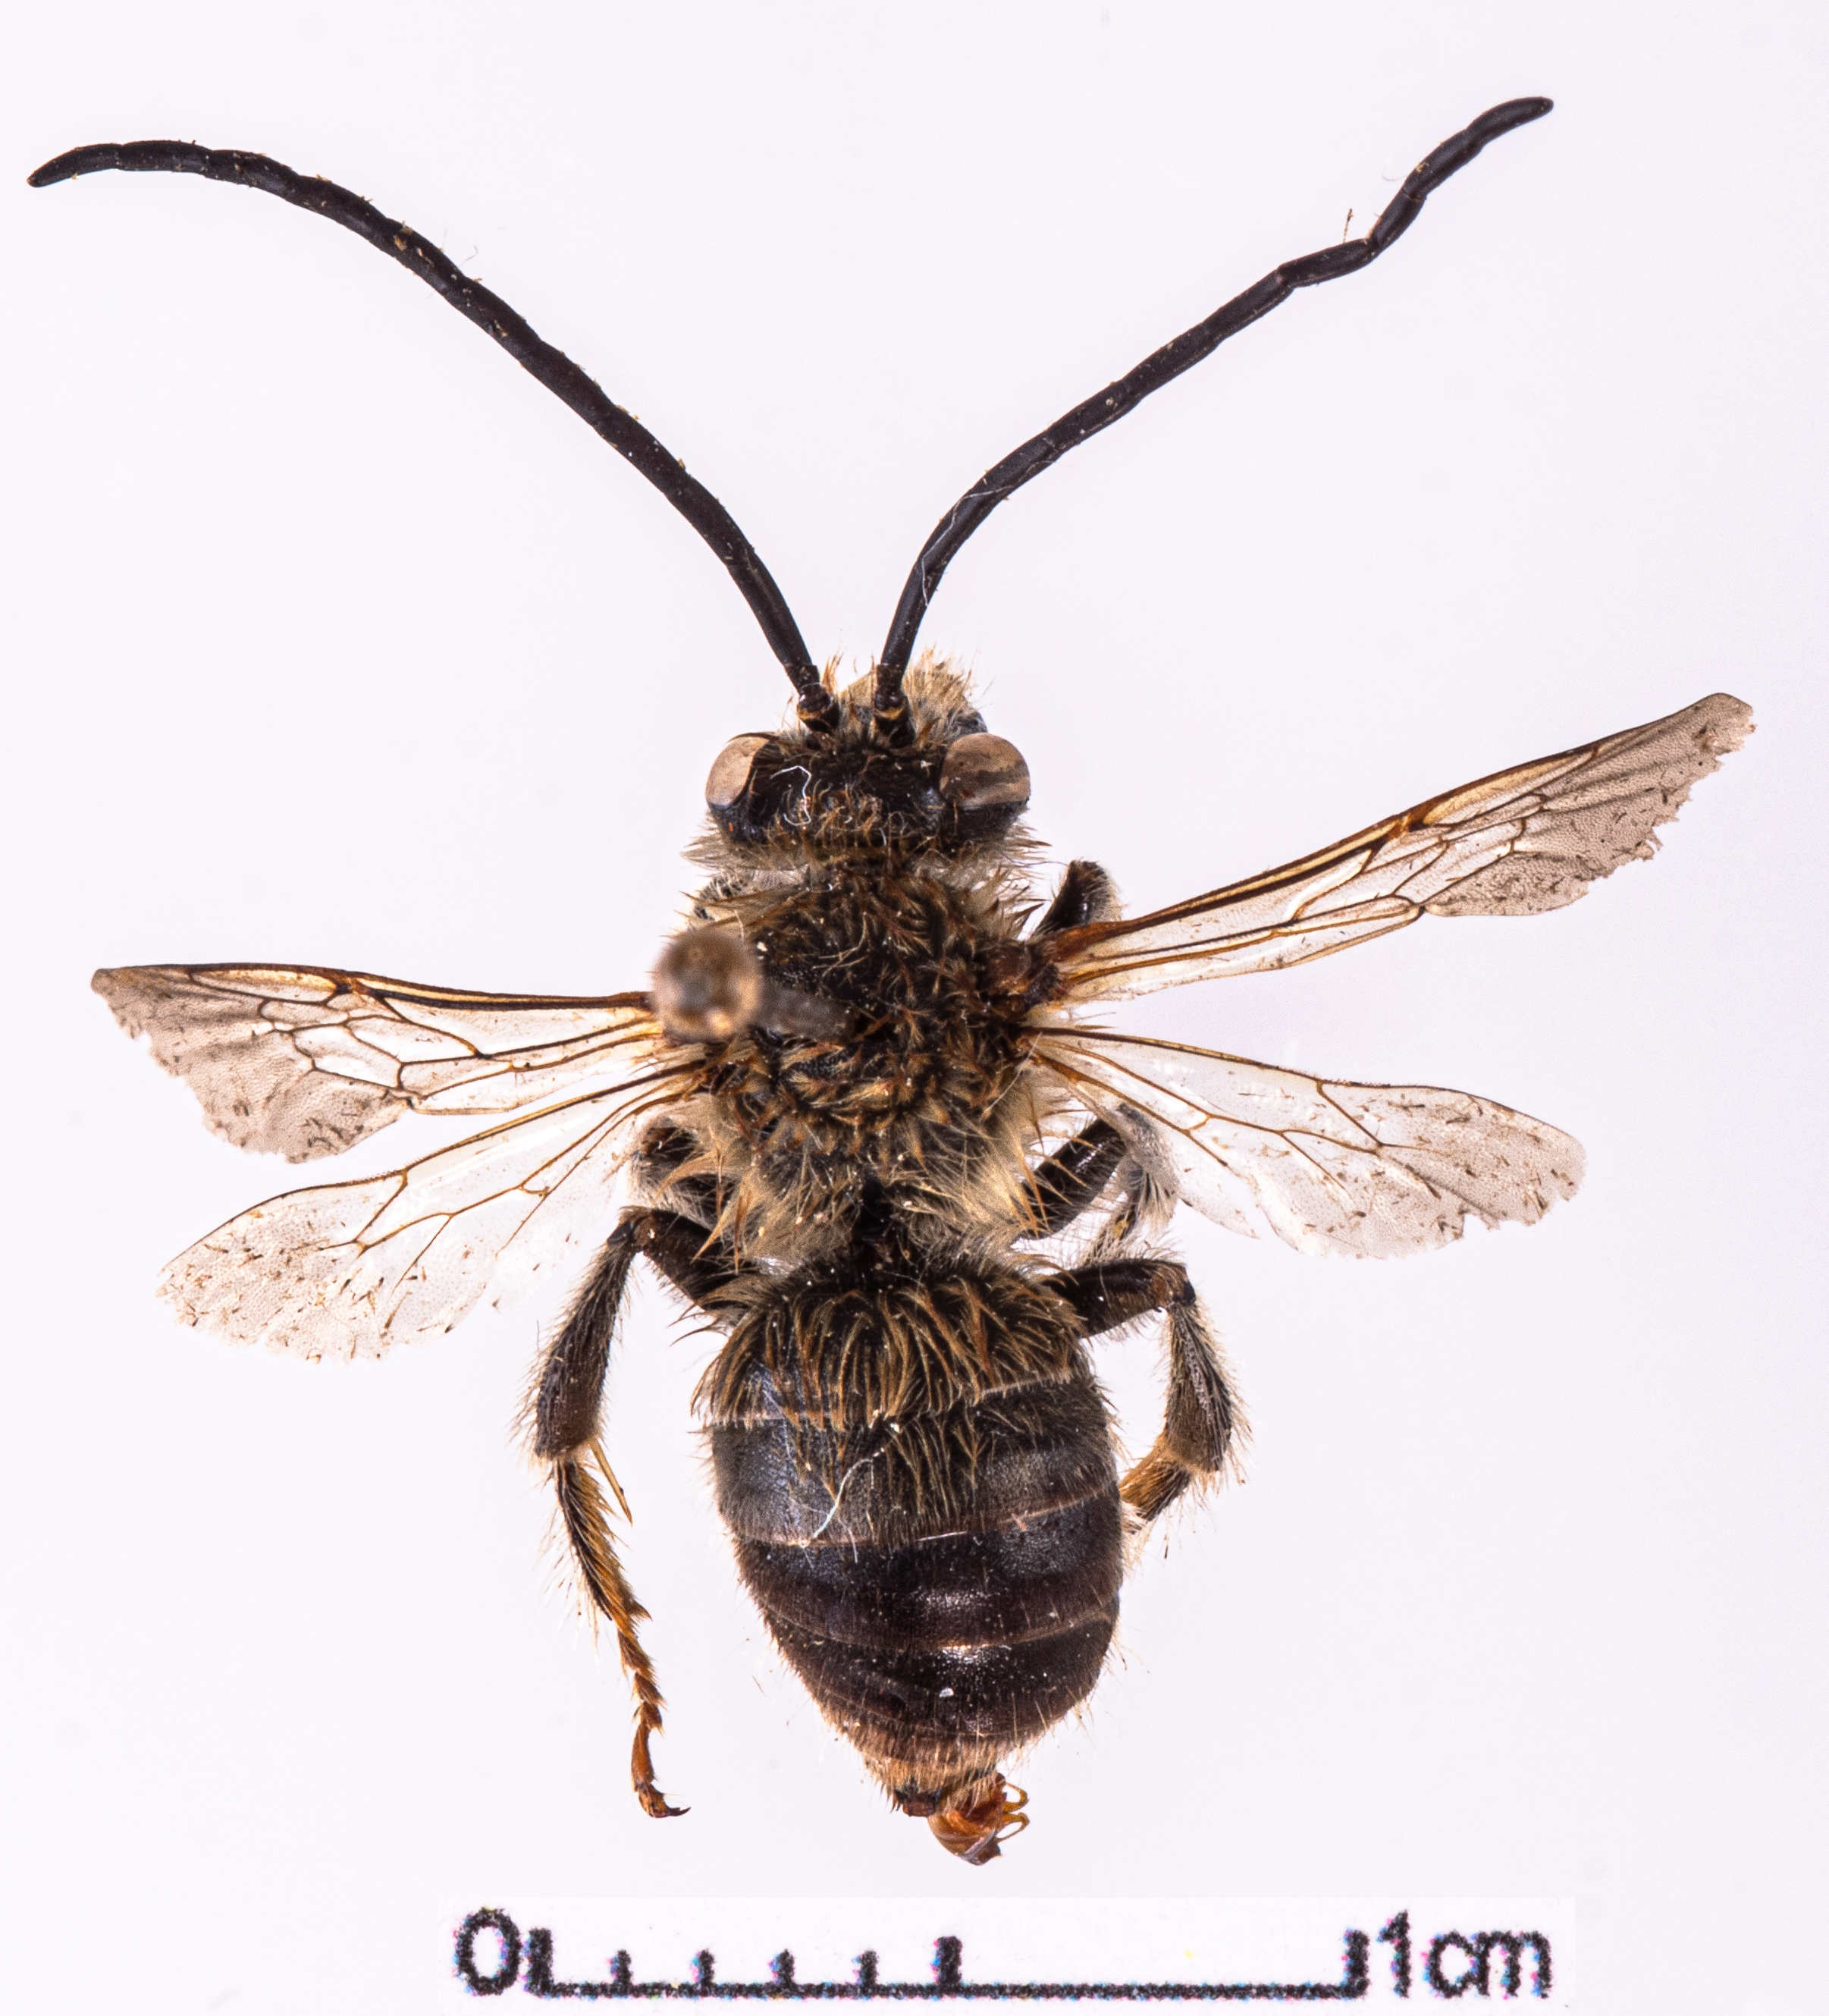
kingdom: Animalia
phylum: Arthropoda
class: Insecta
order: Hymenoptera
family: Apidae
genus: Eucera
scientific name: Eucera longicornis
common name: Long-horned bee
